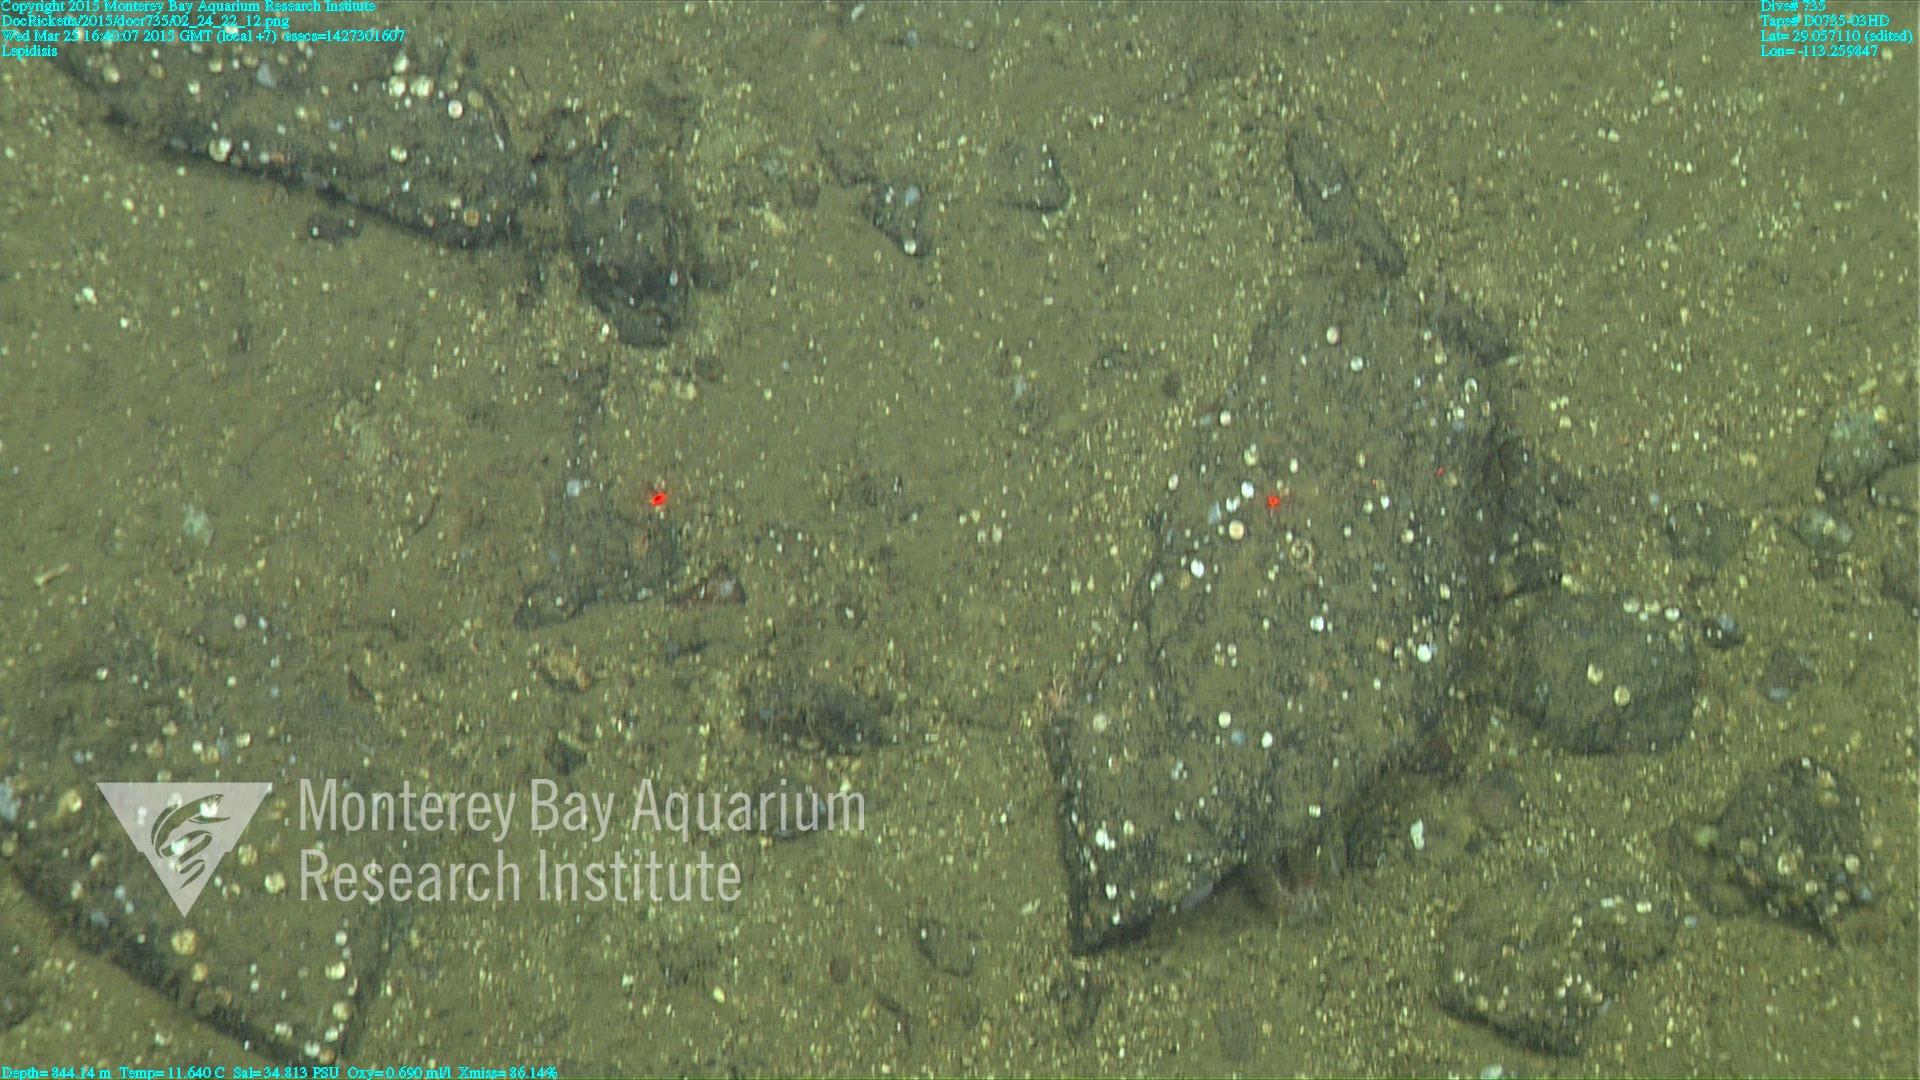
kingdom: Animalia
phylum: Cnidaria
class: Anthozoa
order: Scleralcyonacea
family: Keratoisididae
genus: Lepidisis
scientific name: Lepidisis
